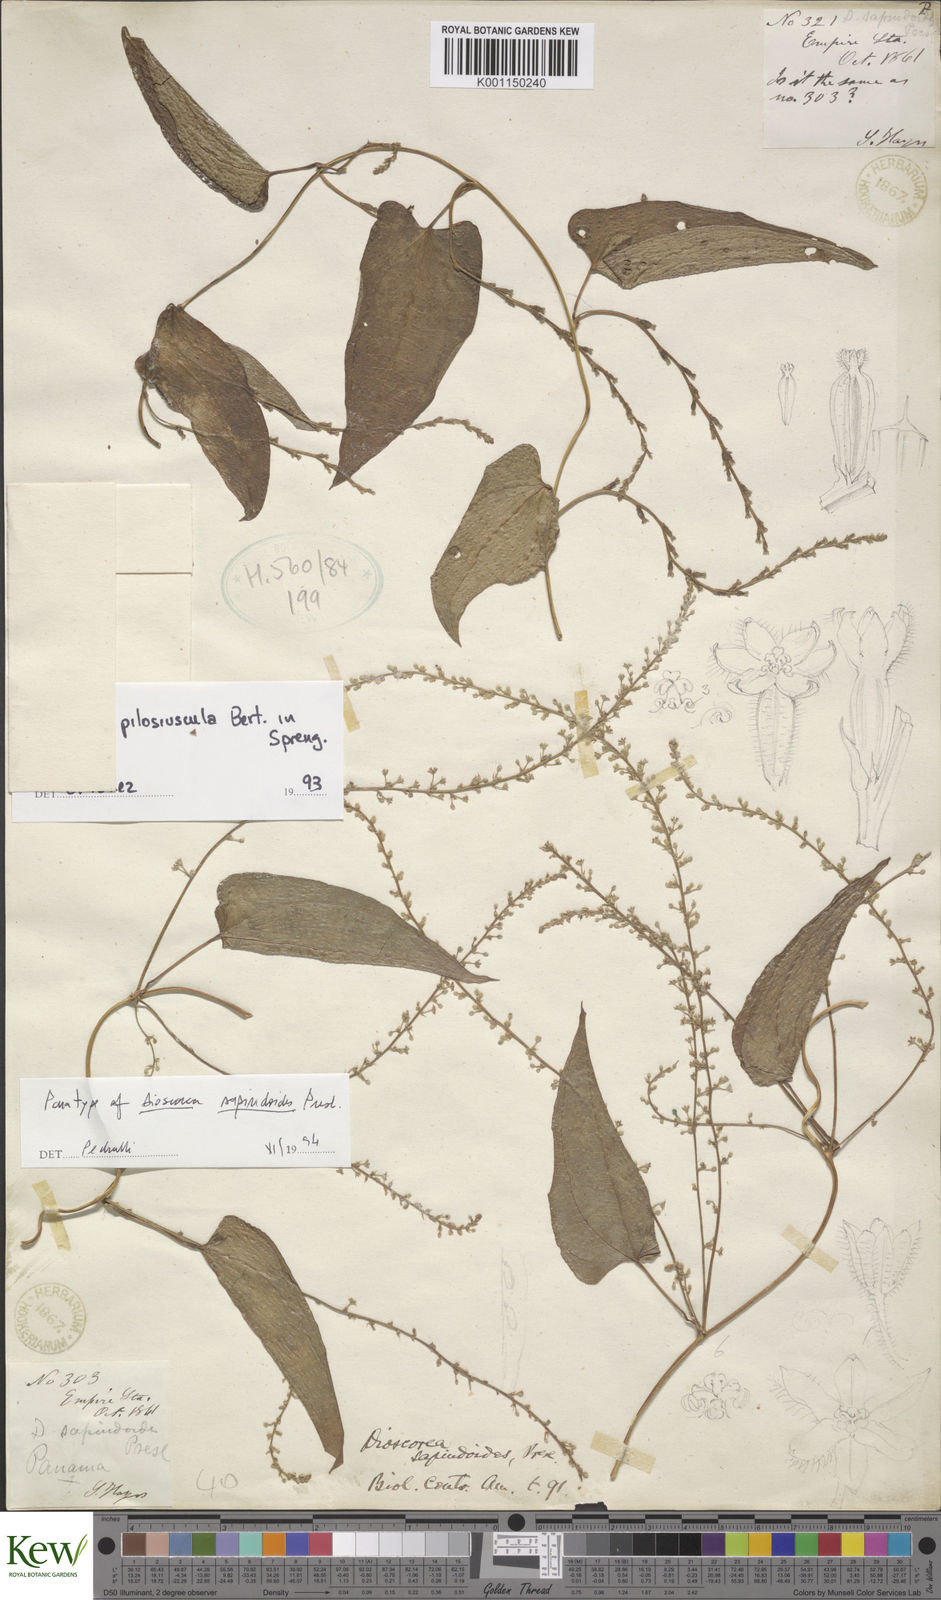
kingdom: Plantae
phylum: Tracheophyta
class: Liliopsida
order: Dioscoreales
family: Dioscoreaceae
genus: Dioscorea
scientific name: Dioscorea pilosiuscula
